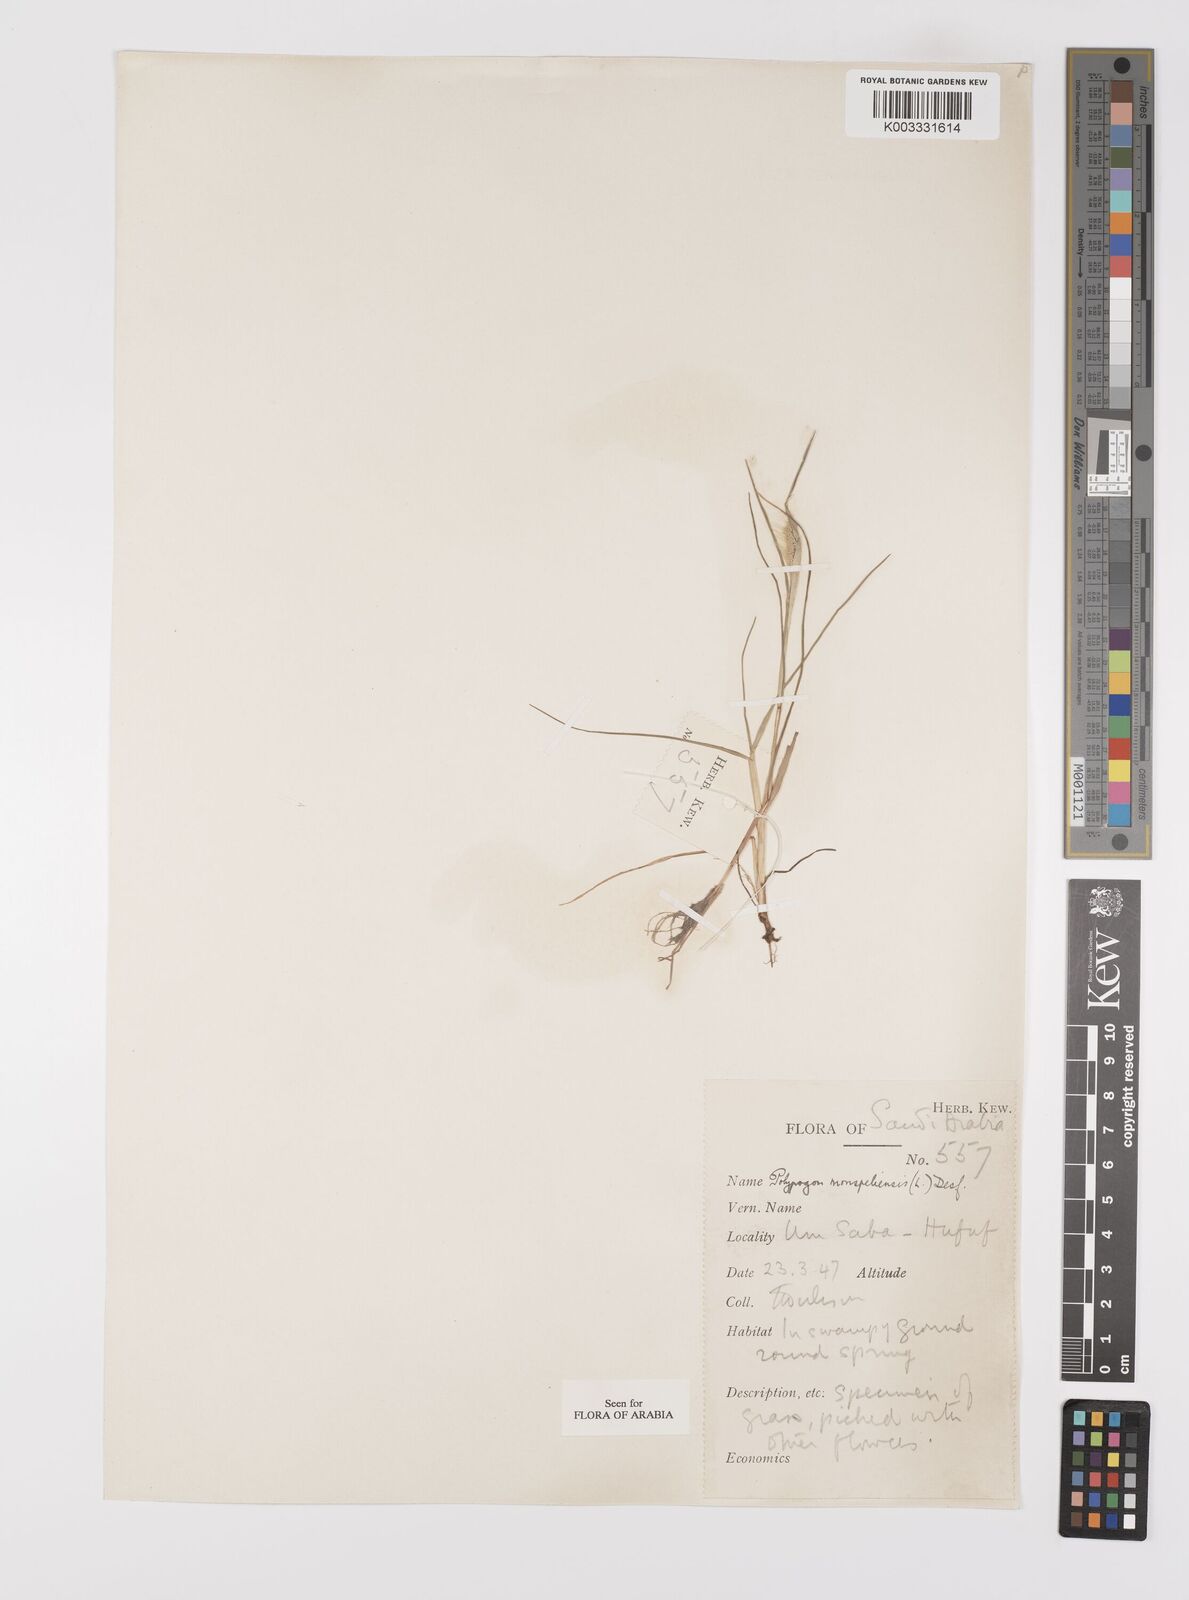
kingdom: Plantae
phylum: Tracheophyta
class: Liliopsida
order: Poales
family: Poaceae
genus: Polypogon
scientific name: Polypogon monspeliensis
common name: Annual rabbitsfoot grass
